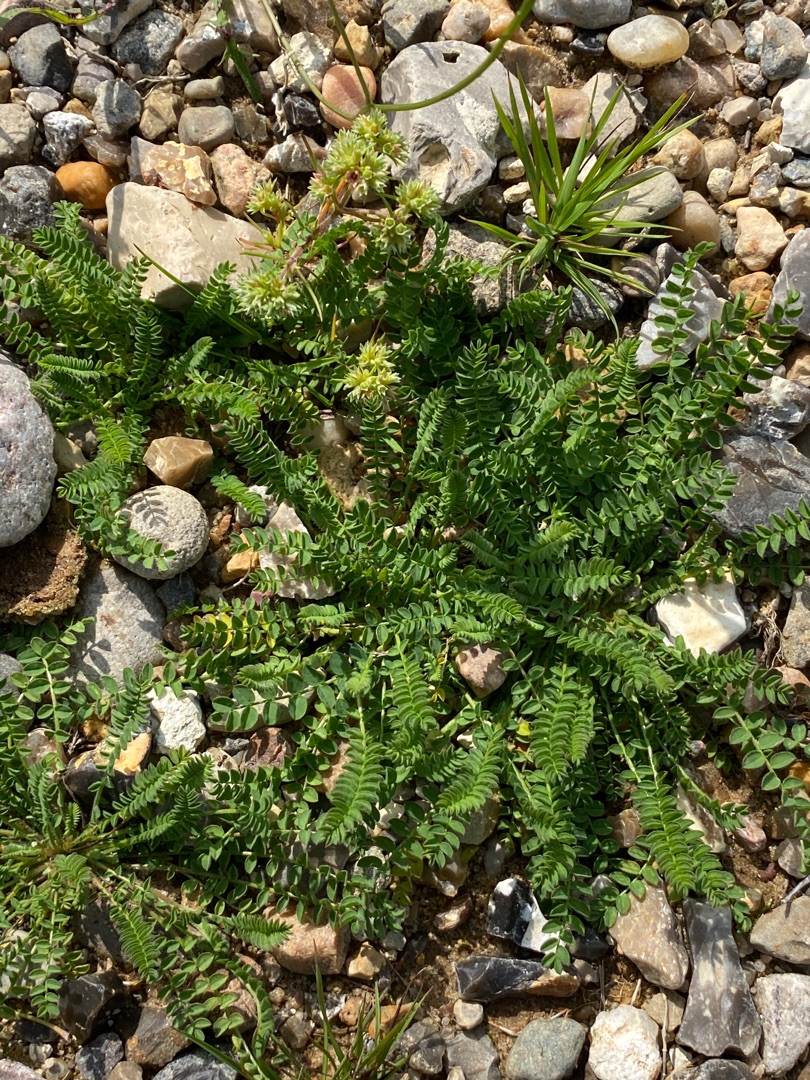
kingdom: Plantae
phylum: Tracheophyta
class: Magnoliopsida
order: Fabales
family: Fabaceae
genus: Ornithopus
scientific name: Ornithopus perpusillus
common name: Liden fugleklo
